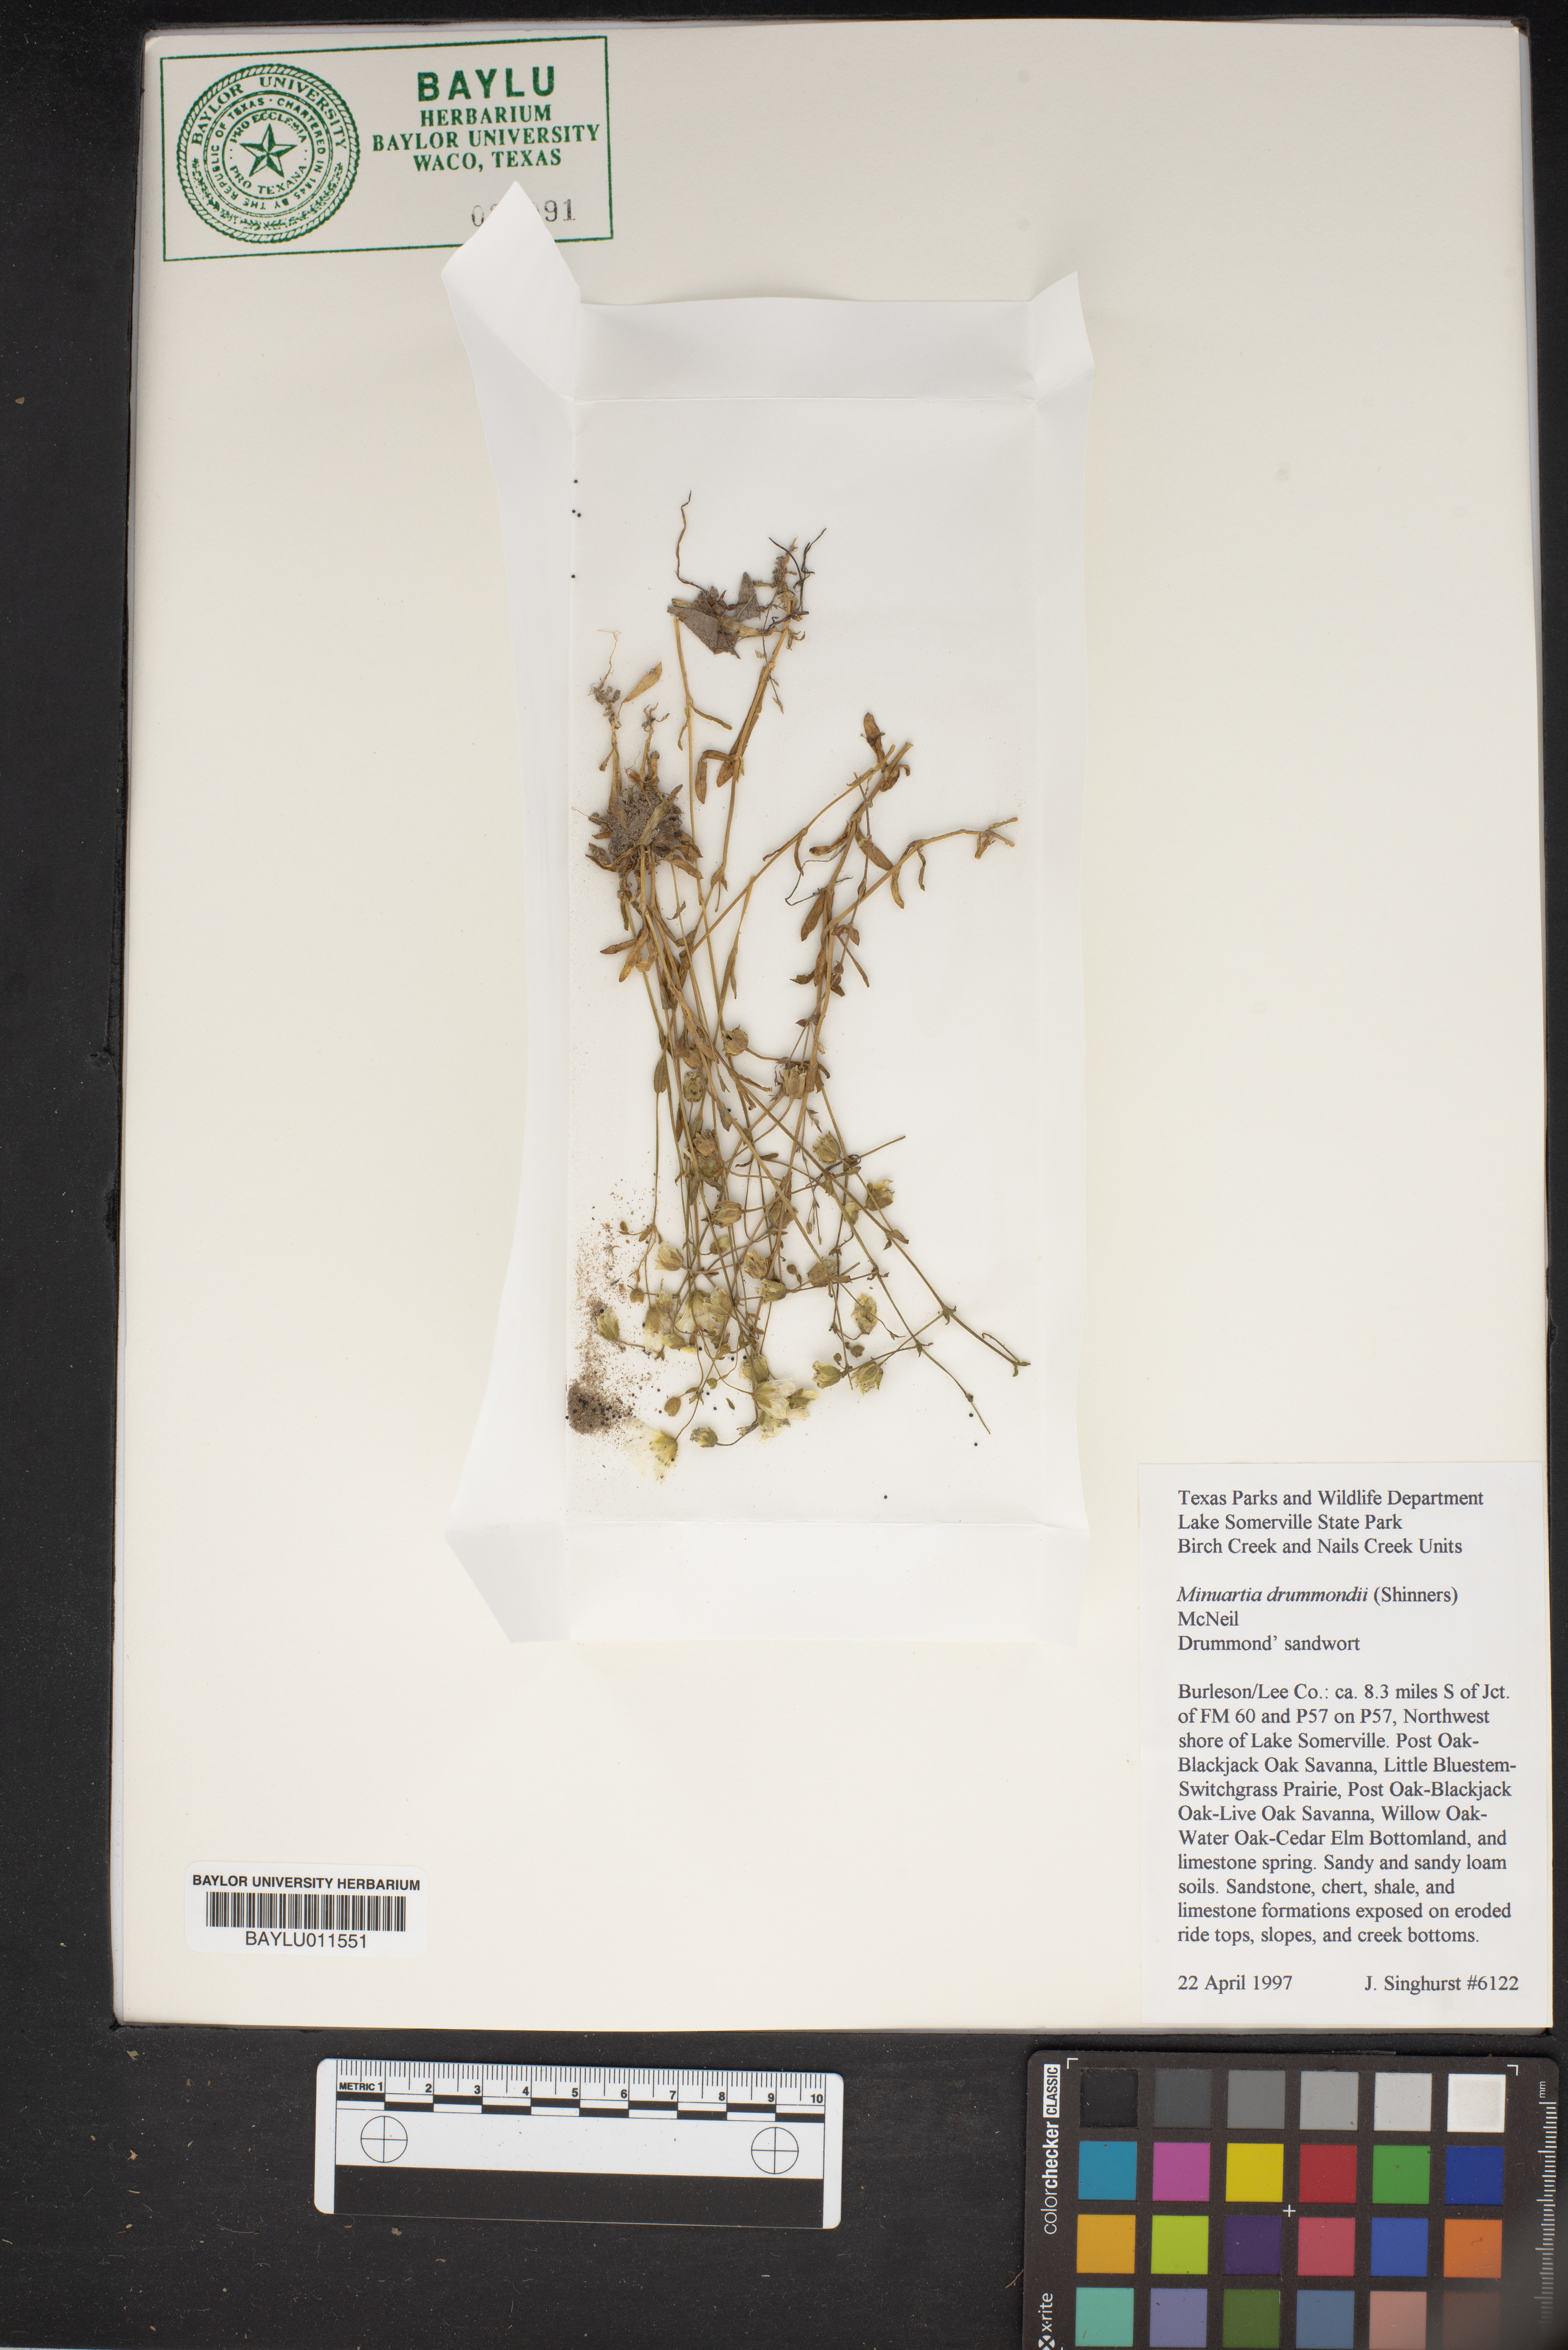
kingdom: Plantae
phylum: Tracheophyta
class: Magnoliopsida
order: Caryophyllales
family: Caryophyllaceae
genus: Geocarpon
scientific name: Geocarpon nuttallii
